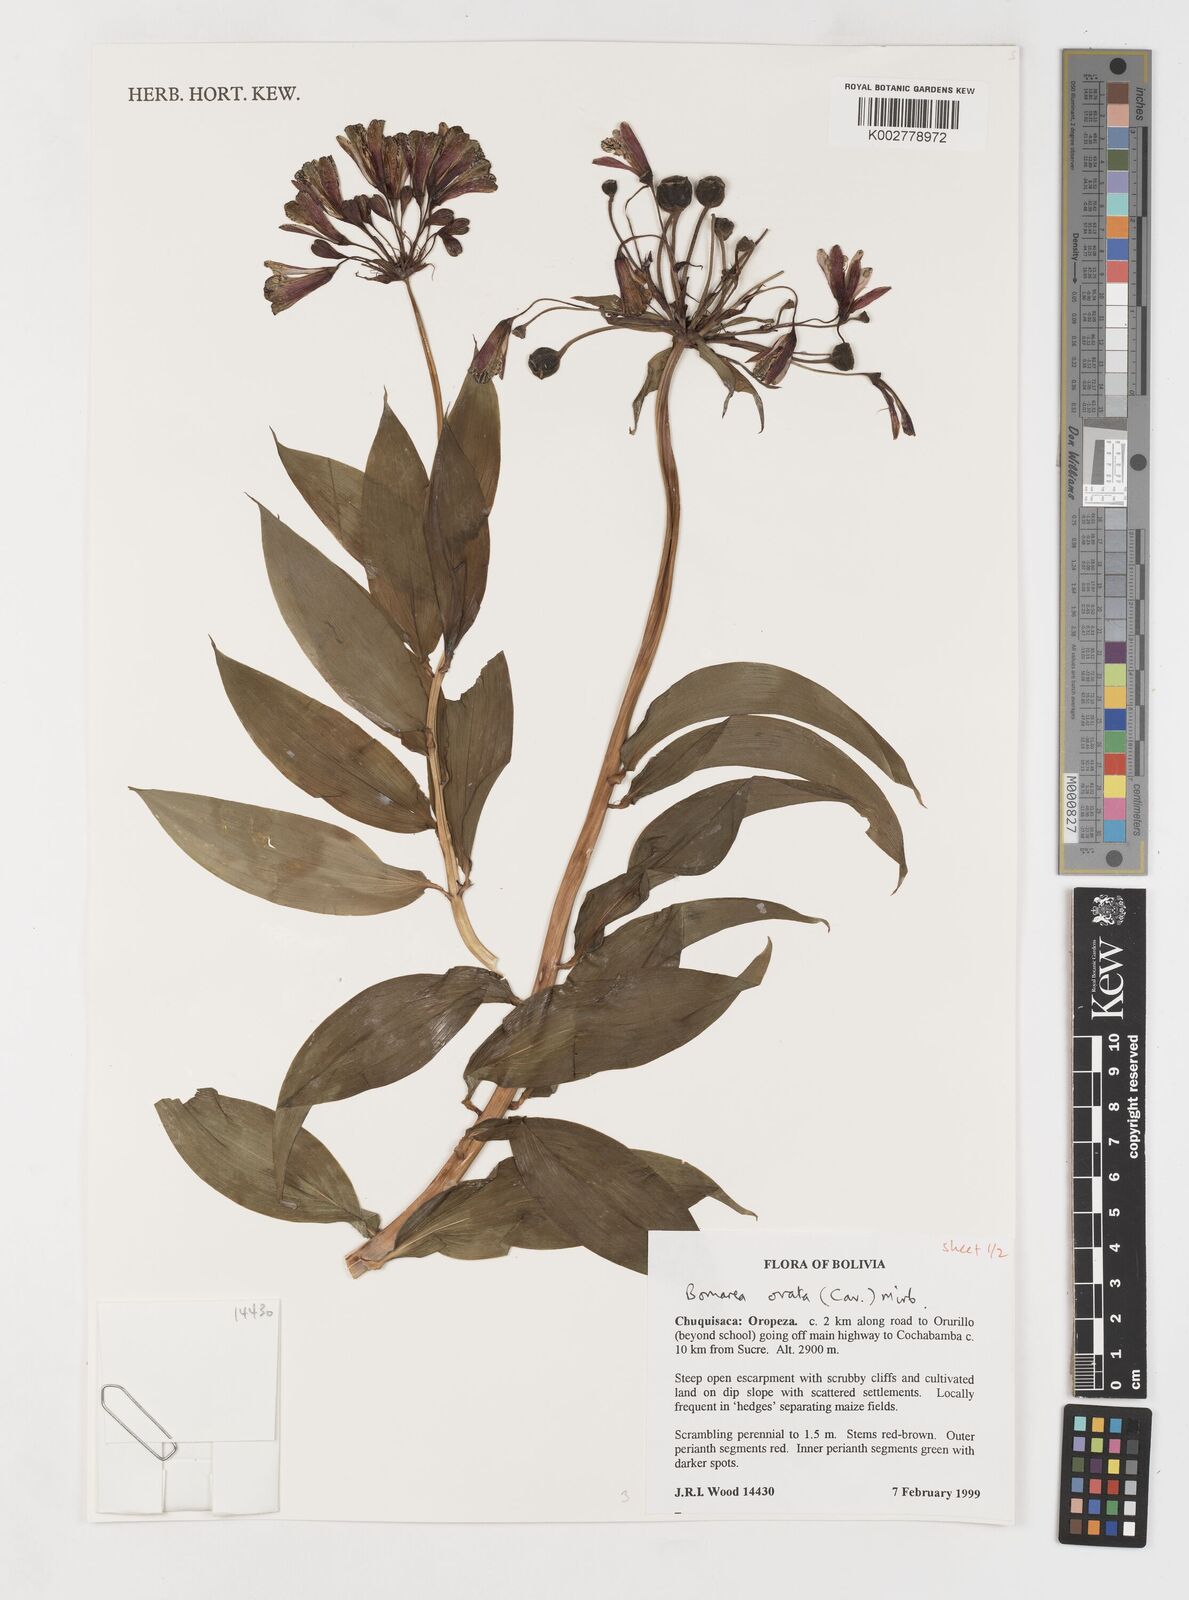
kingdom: Plantae
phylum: Tracheophyta
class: Liliopsida
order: Liliales
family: Alstroemeriaceae
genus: Bomarea
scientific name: Bomarea ovata
